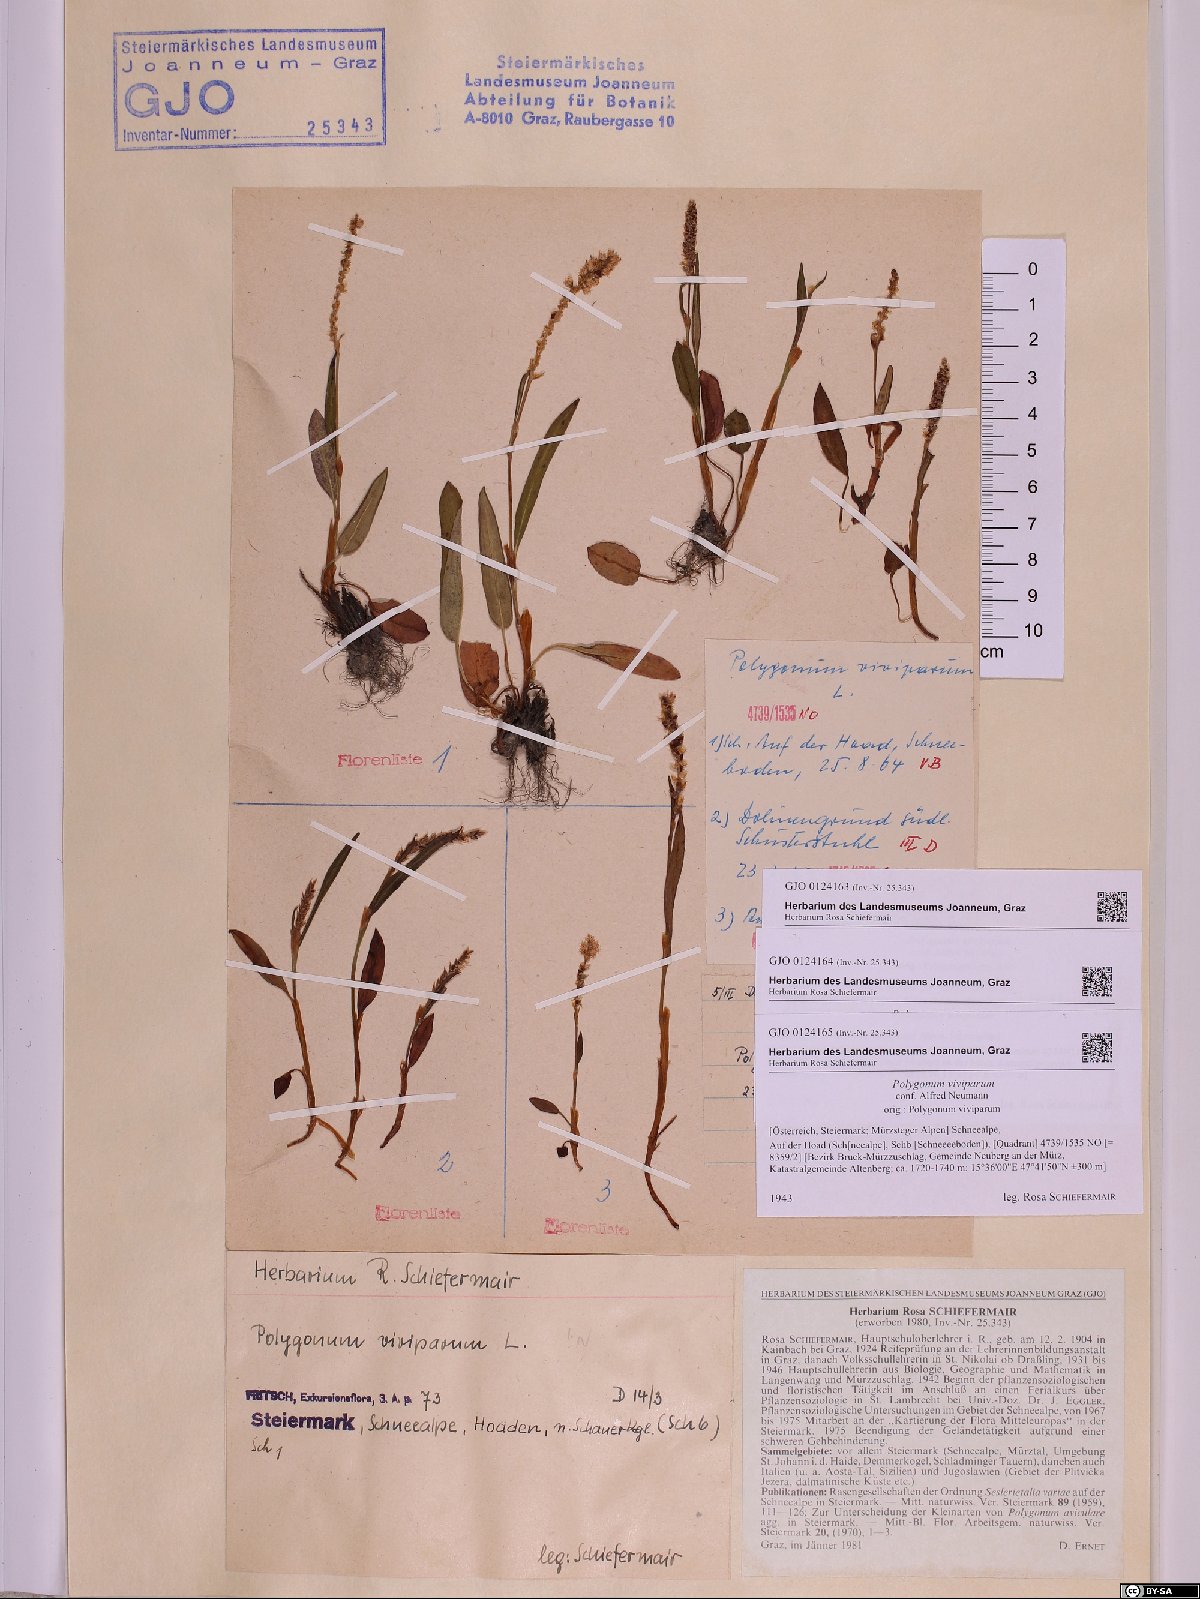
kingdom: Plantae
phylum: Tracheophyta
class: Magnoliopsida
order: Caryophyllales
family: Polygonaceae
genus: Bistorta
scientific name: Bistorta vivipara
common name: Alpine bistort
